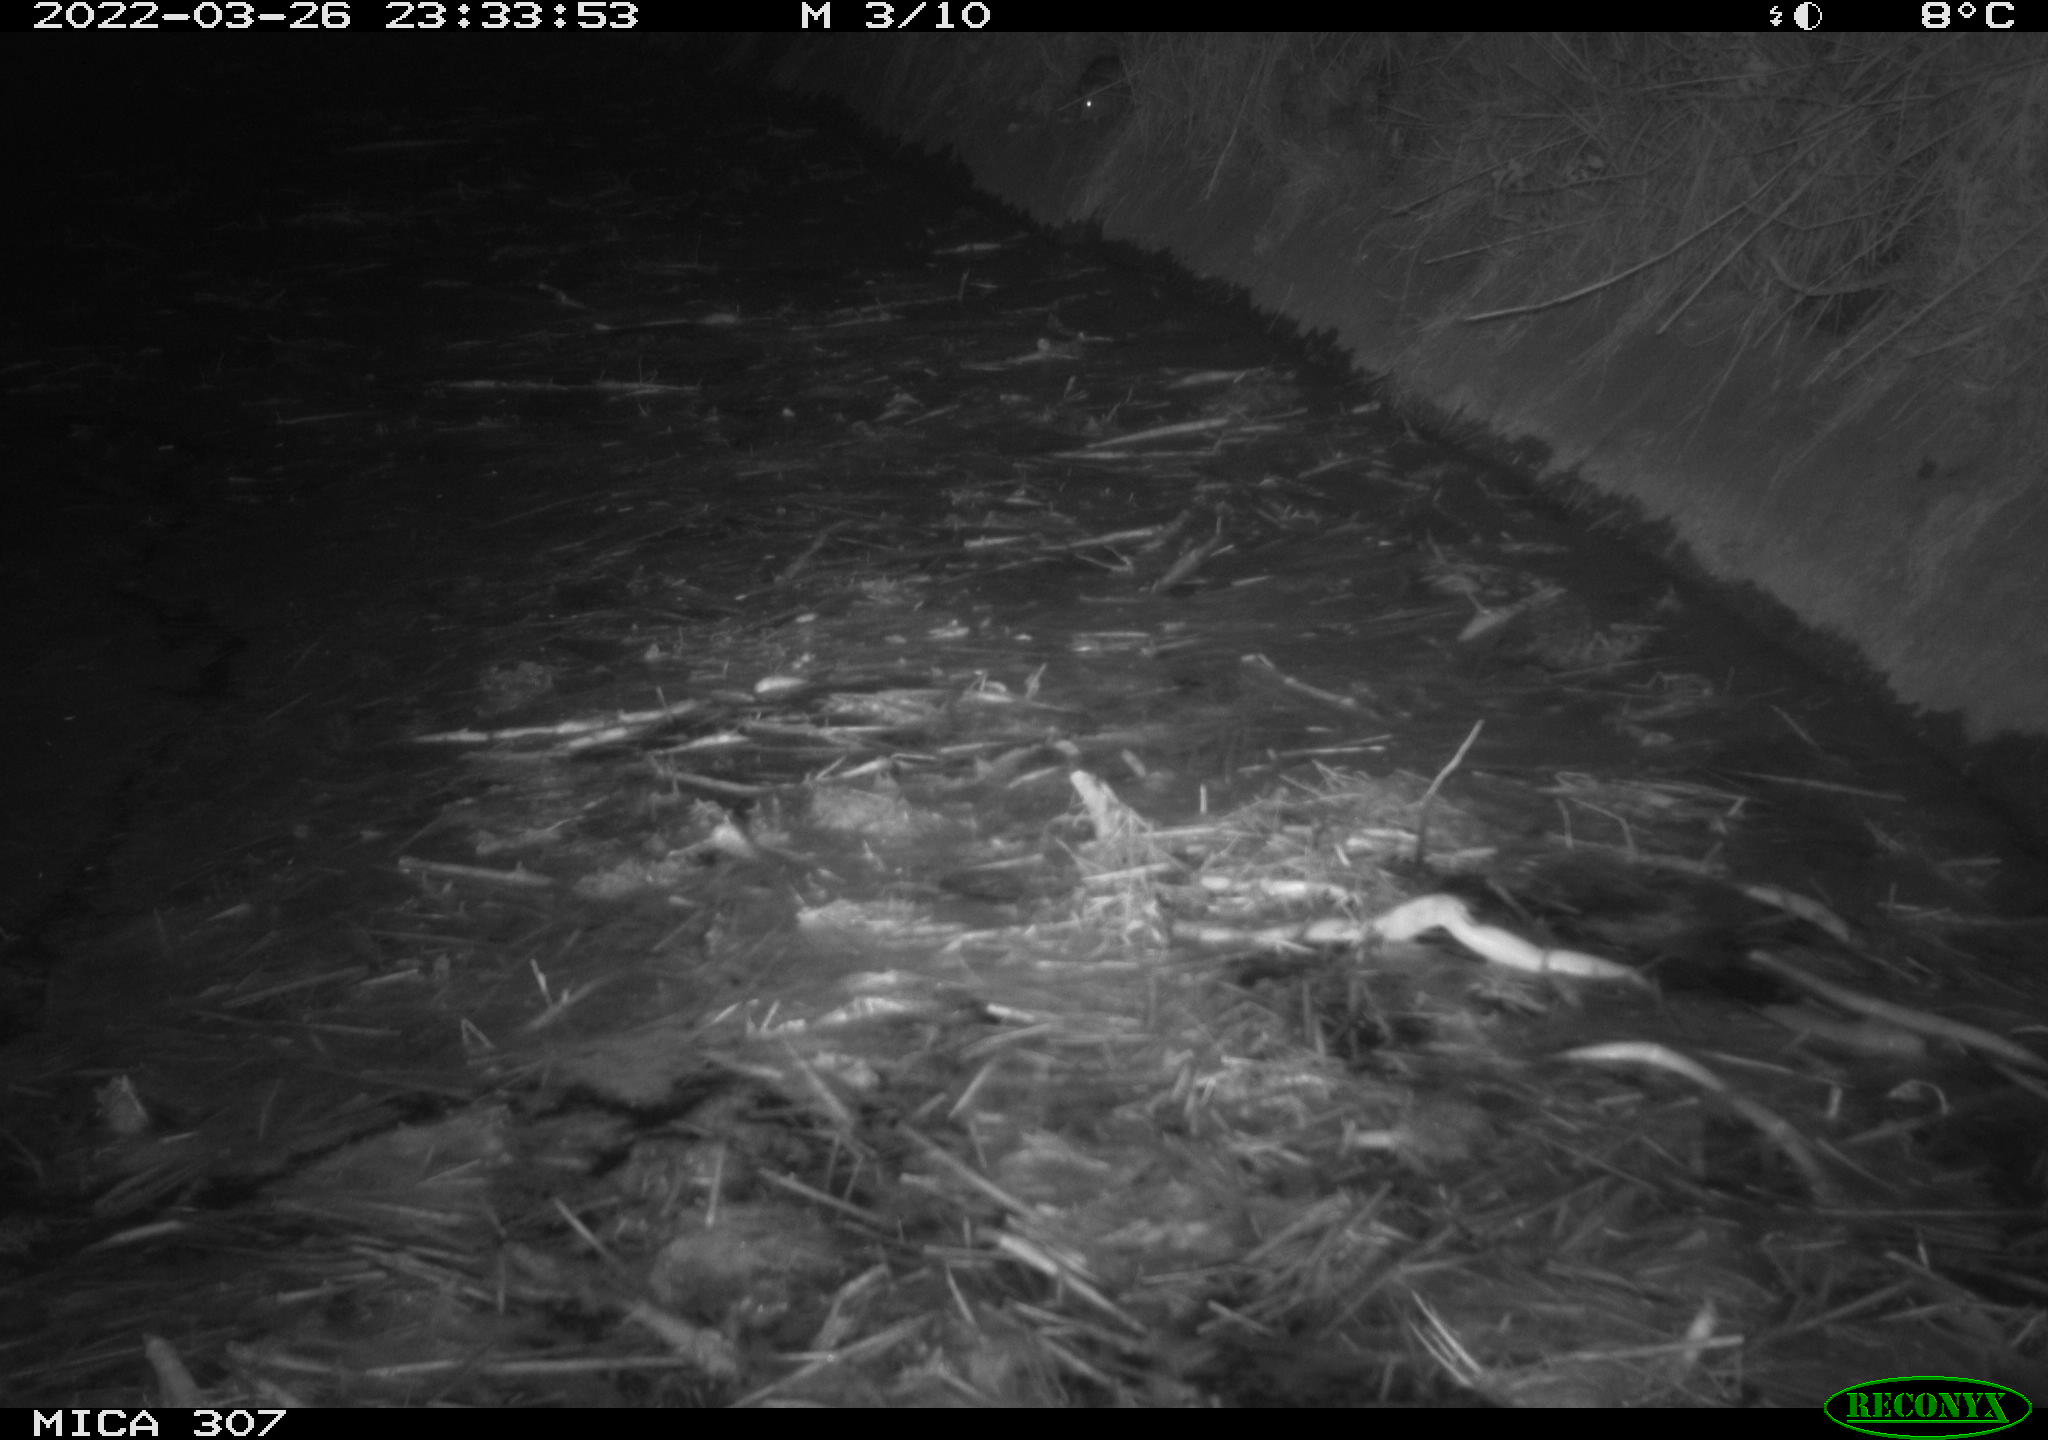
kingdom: Animalia
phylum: Chordata
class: Mammalia
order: Rodentia
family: Muridae
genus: Rattus
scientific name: Rattus norvegicus
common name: Brown rat
